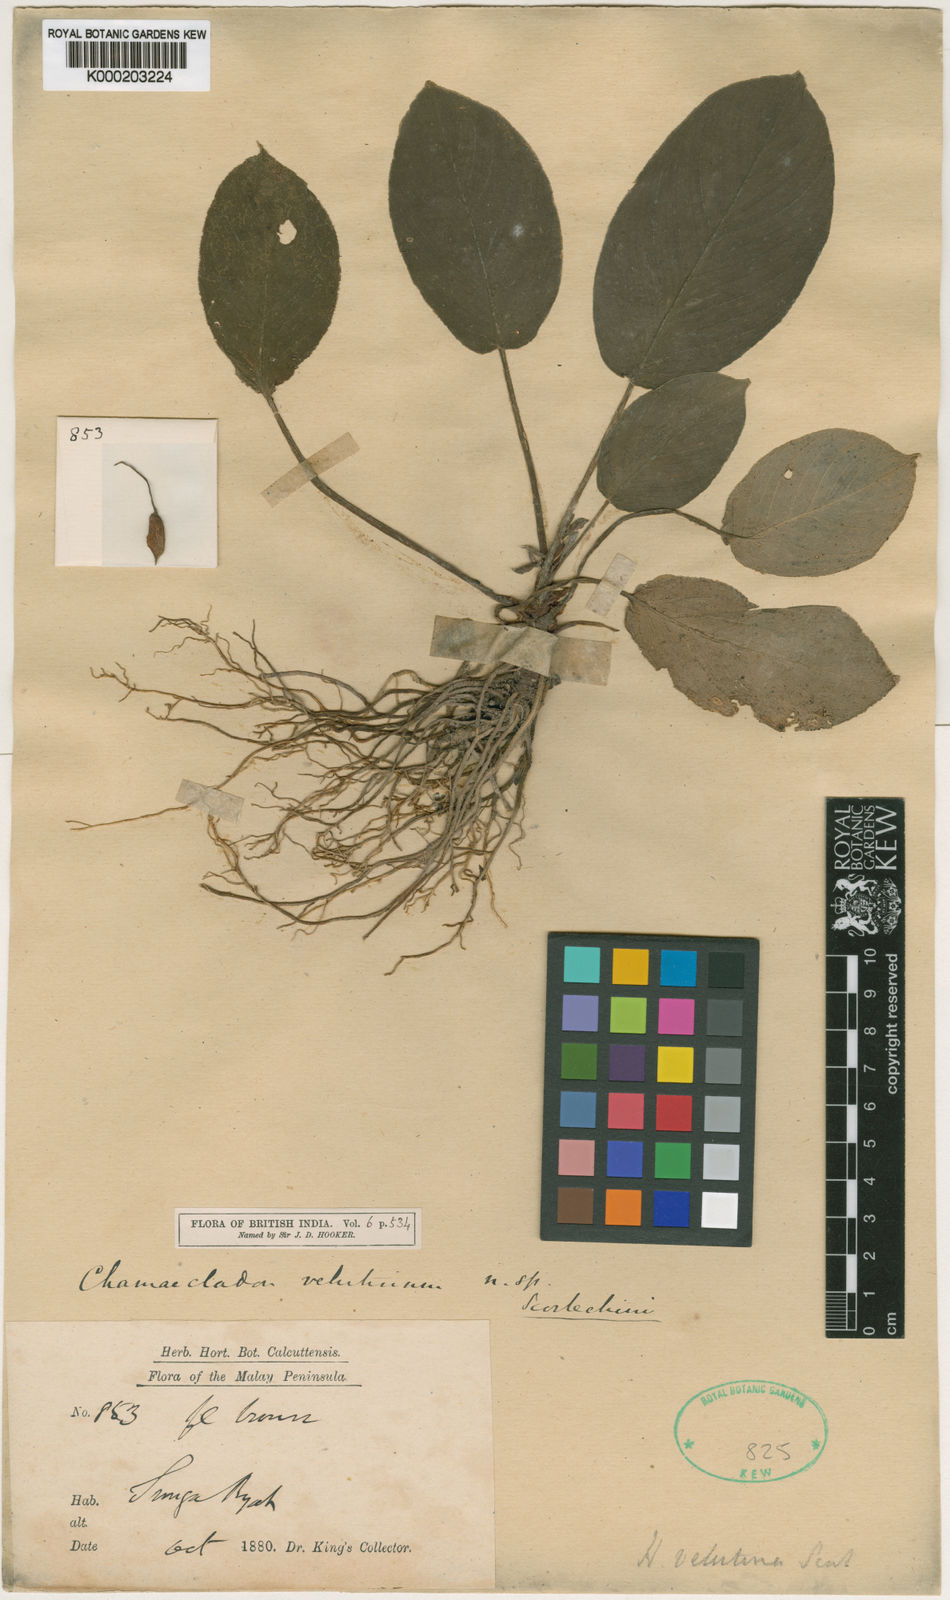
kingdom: Plantae
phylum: Tracheophyta
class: Liliopsida
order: Alismatales
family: Araceae
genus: Homalomena
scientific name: Homalomena humilis
